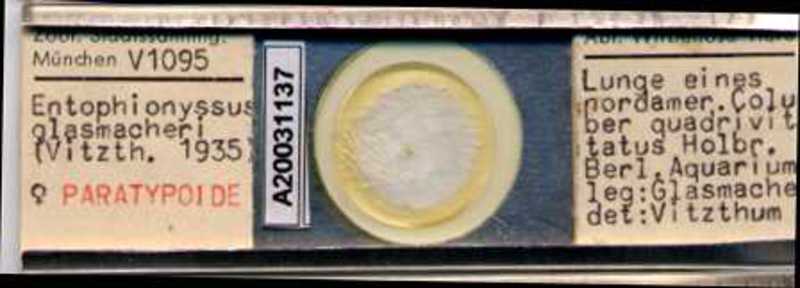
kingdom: Animalia
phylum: Arthropoda
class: Arachnida
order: Mesostigmata
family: Entonyssidae
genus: Entophionyssus
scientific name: Entophionyssus glasmacheri
